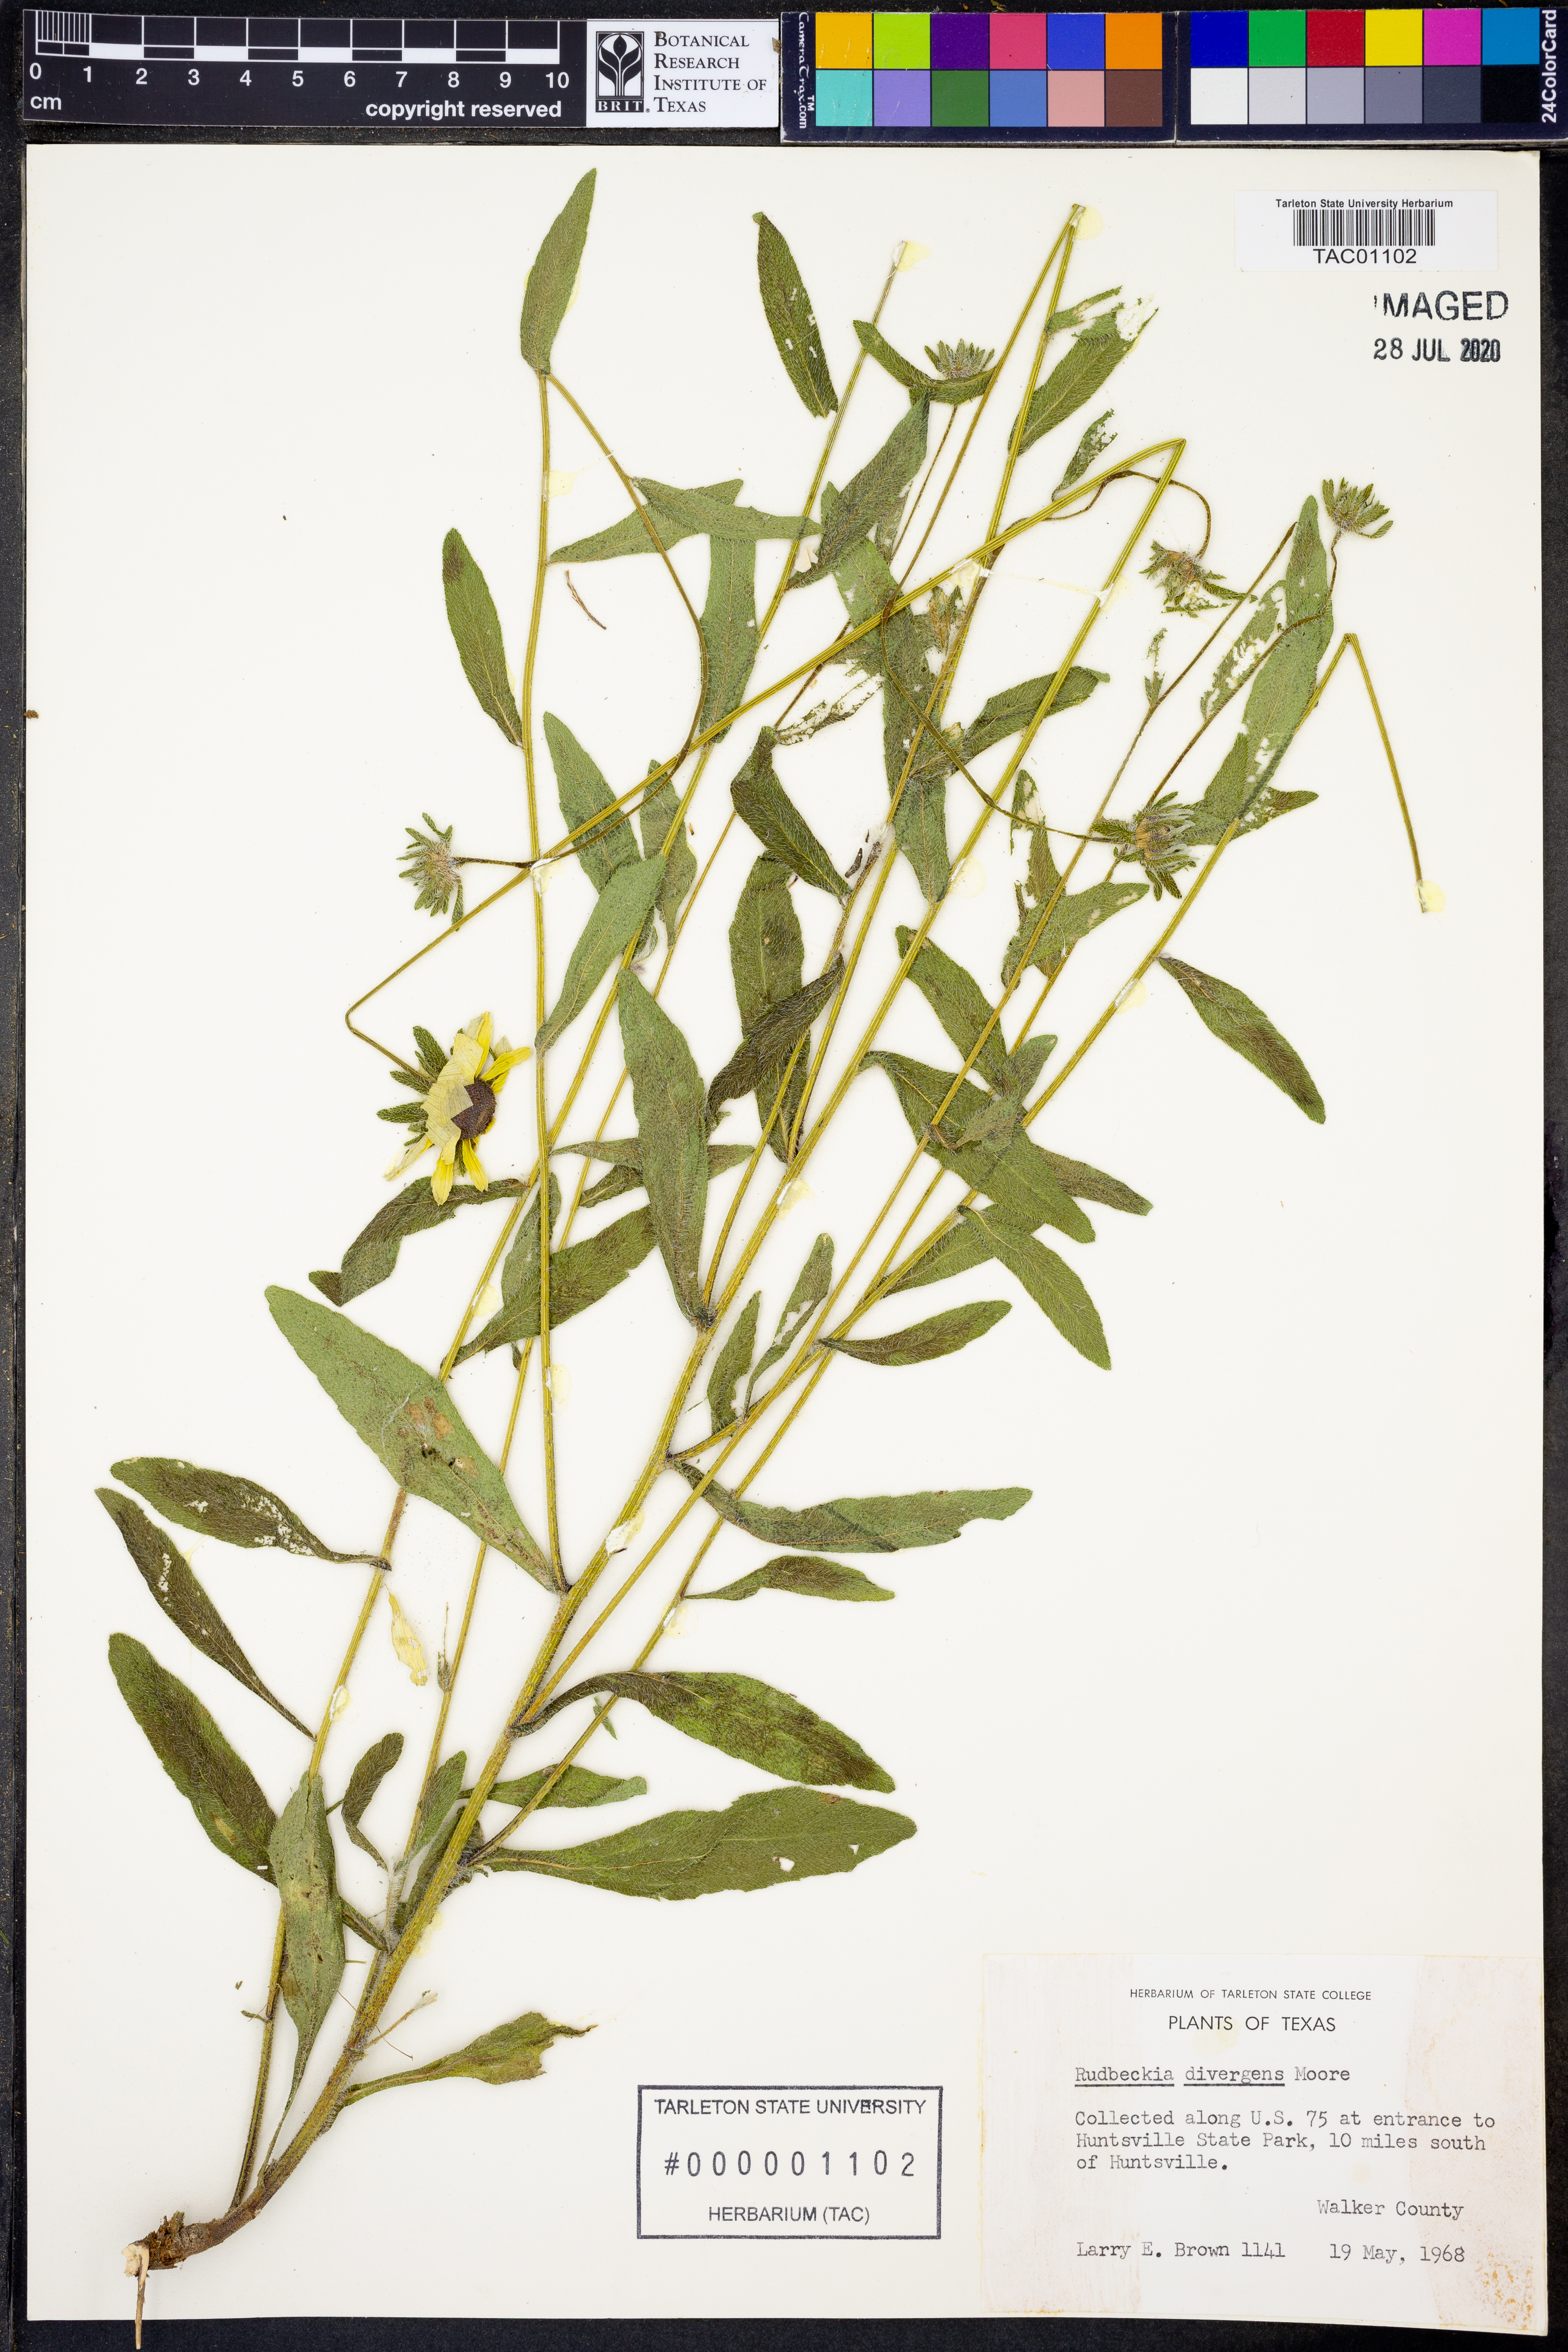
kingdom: Plantae
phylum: Tracheophyta
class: Magnoliopsida
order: Asterales
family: Asteraceae
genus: Rudbeckia
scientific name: Rudbeckia hirta
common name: Black-eyed-susan
